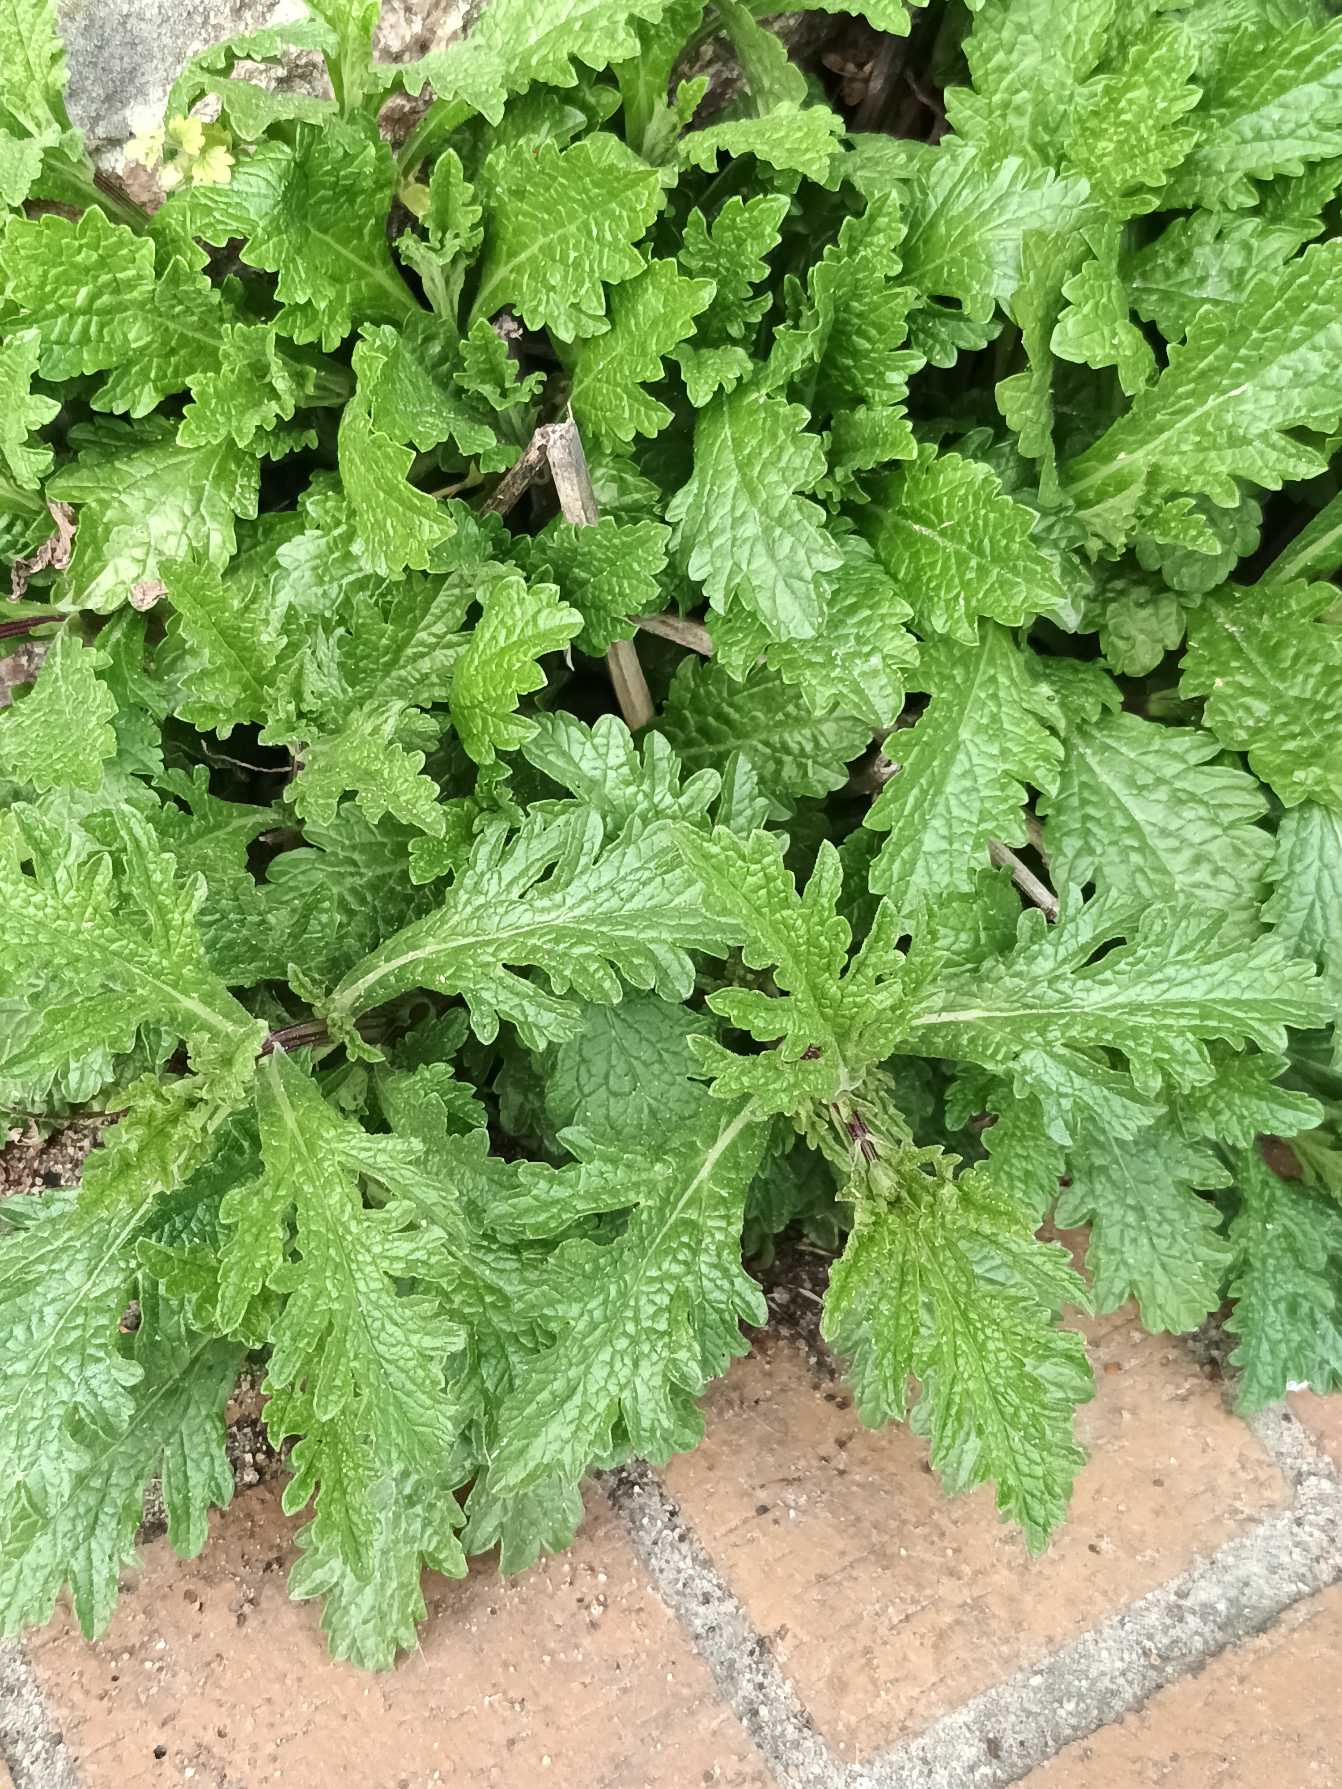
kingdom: Plantae
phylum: Tracheophyta
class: Magnoliopsida
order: Lamiales
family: Verbenaceae
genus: Verbena
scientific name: Verbena officinalis
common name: Læge-jernurt
